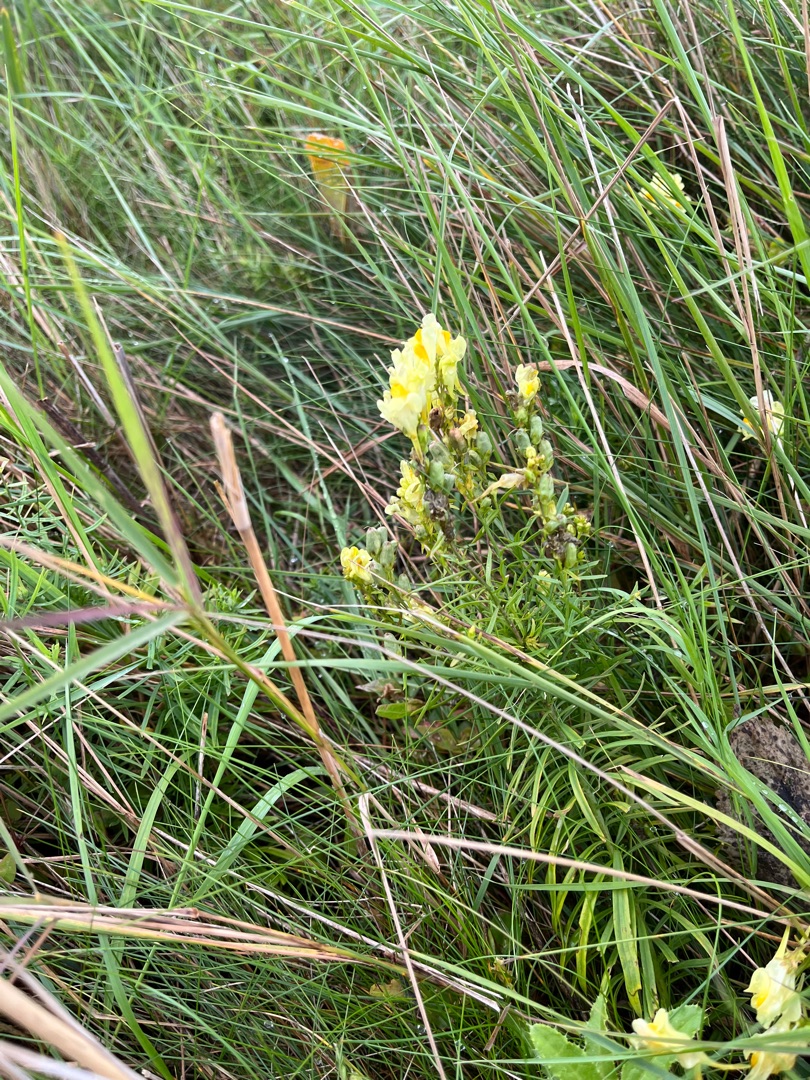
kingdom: Plantae
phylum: Tracheophyta
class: Magnoliopsida
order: Lamiales
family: Plantaginaceae
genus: Linaria
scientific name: Linaria vulgaris
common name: Almindelig torskemund
